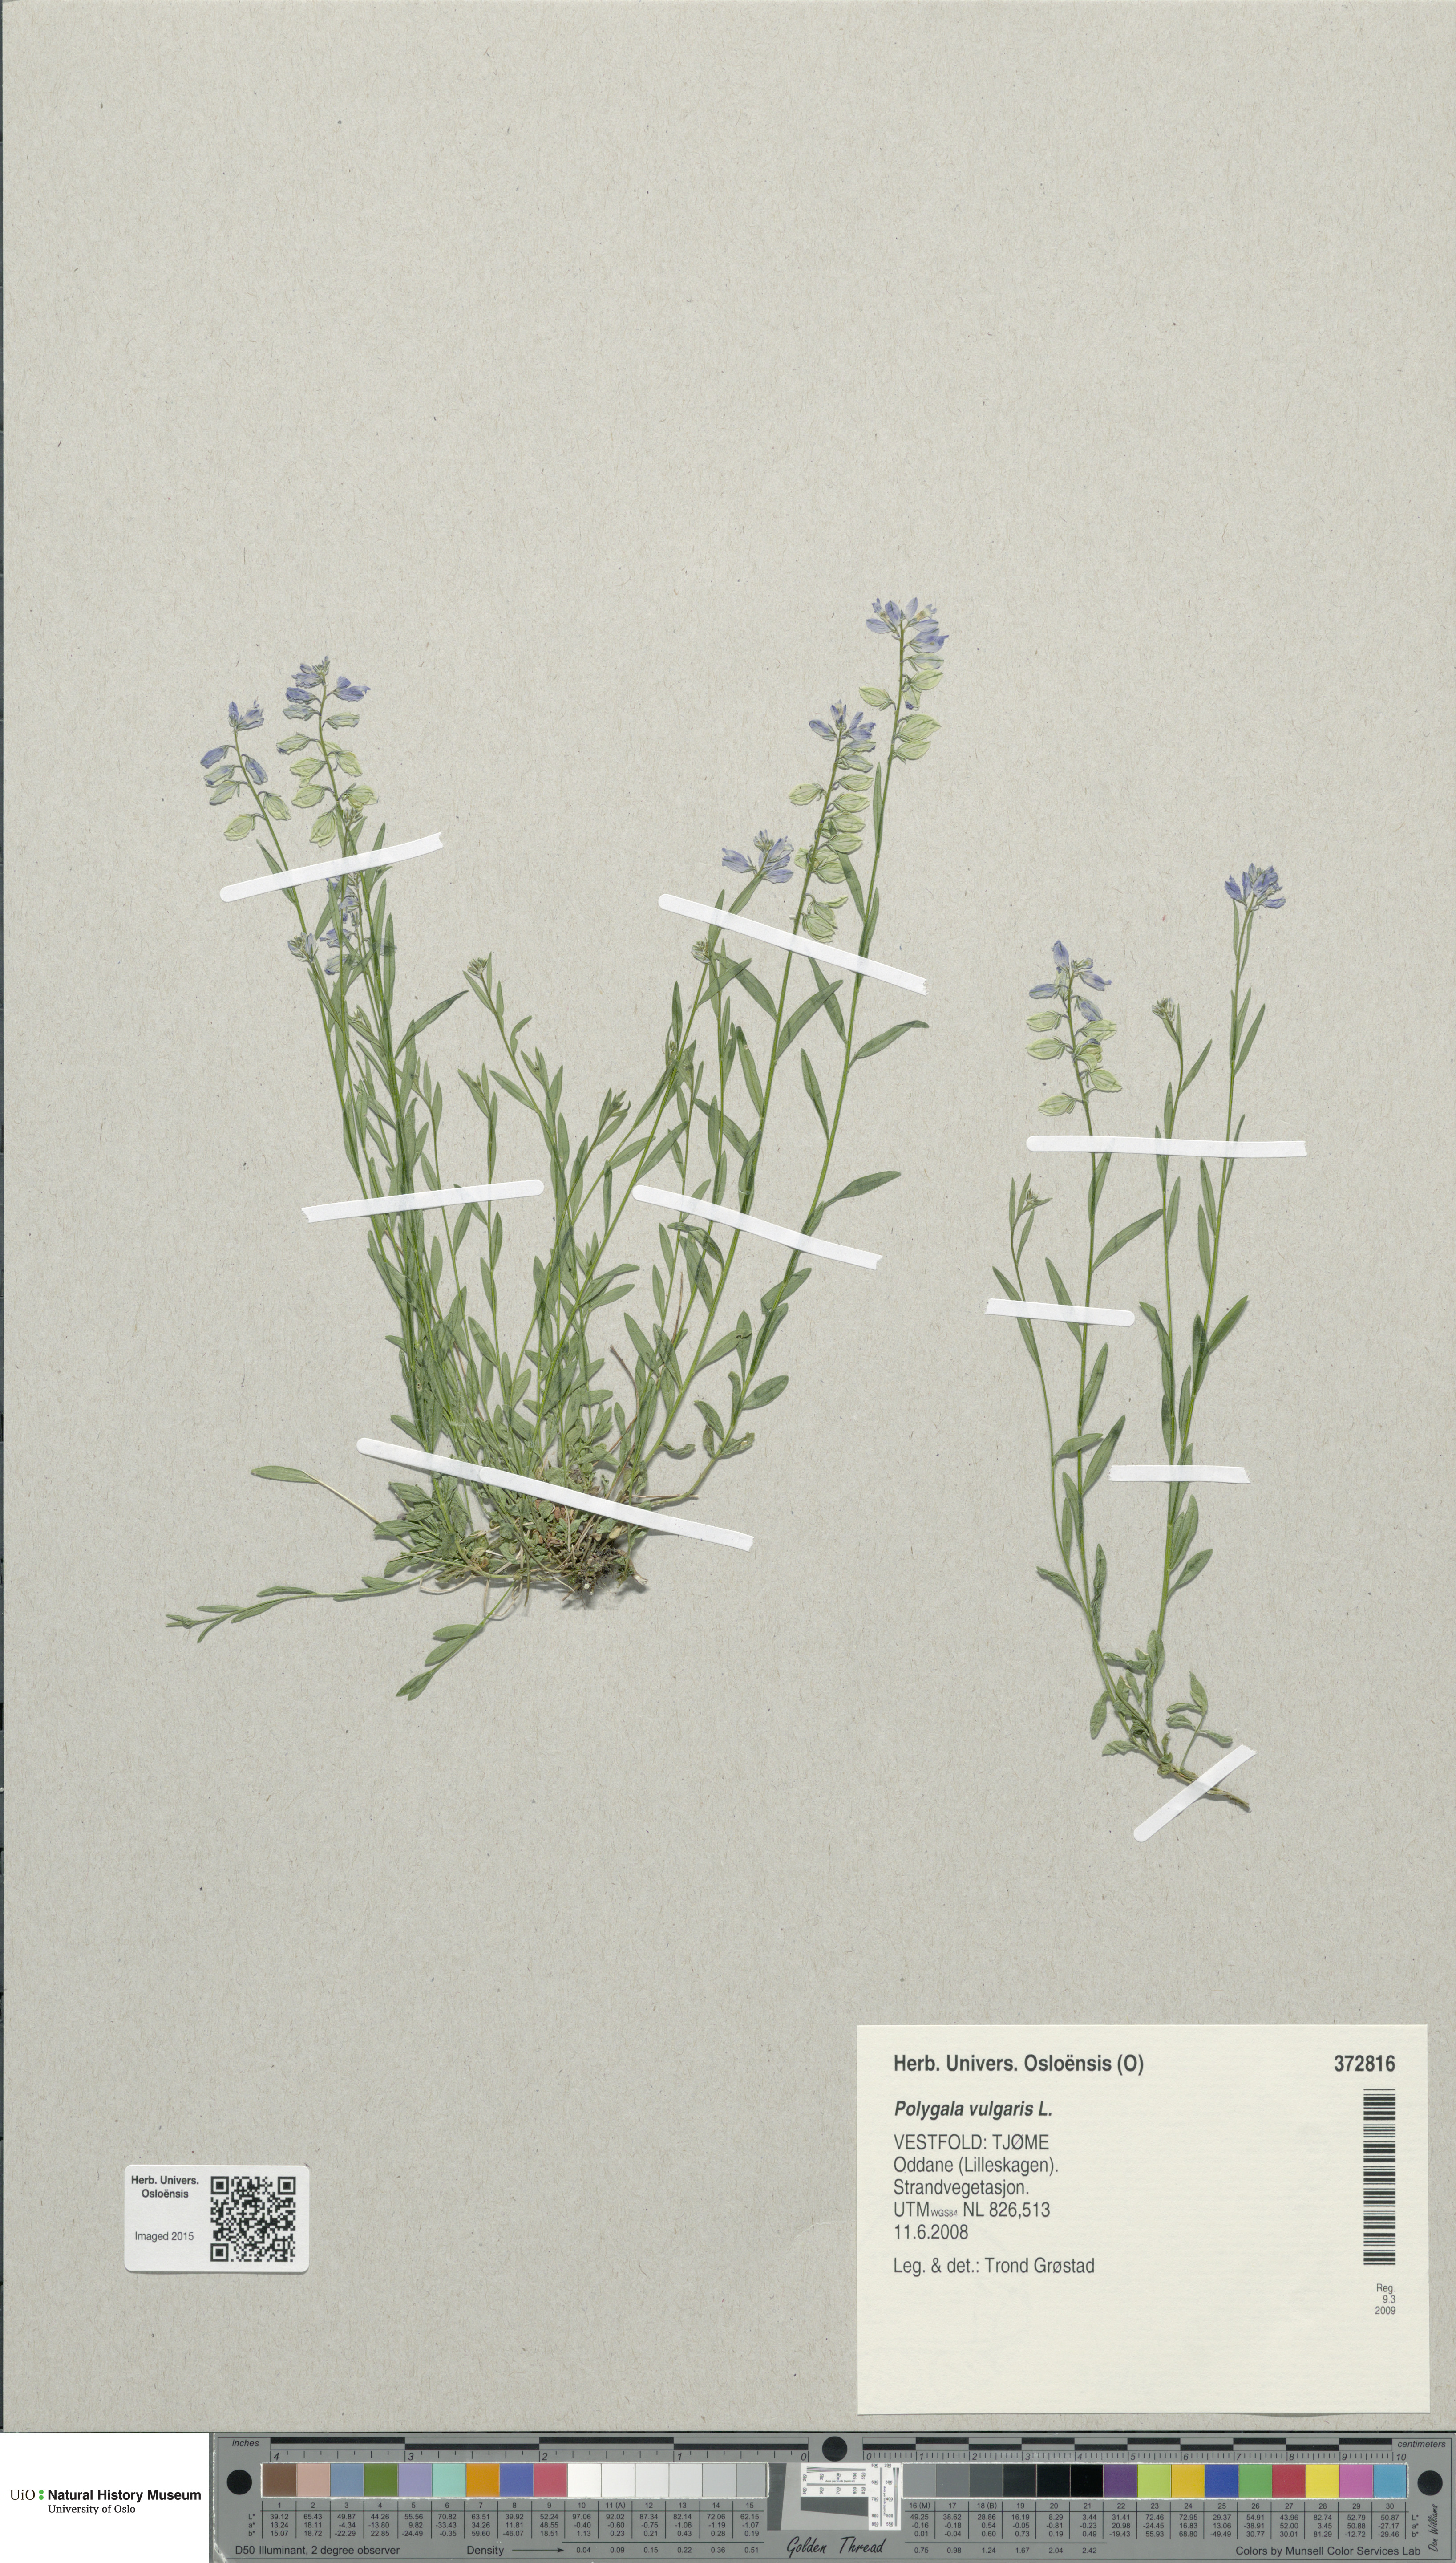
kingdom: Plantae
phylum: Tracheophyta
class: Magnoliopsida
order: Fabales
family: Polygalaceae
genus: Polygala
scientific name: Polygala vulgaris
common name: Common milkwort
